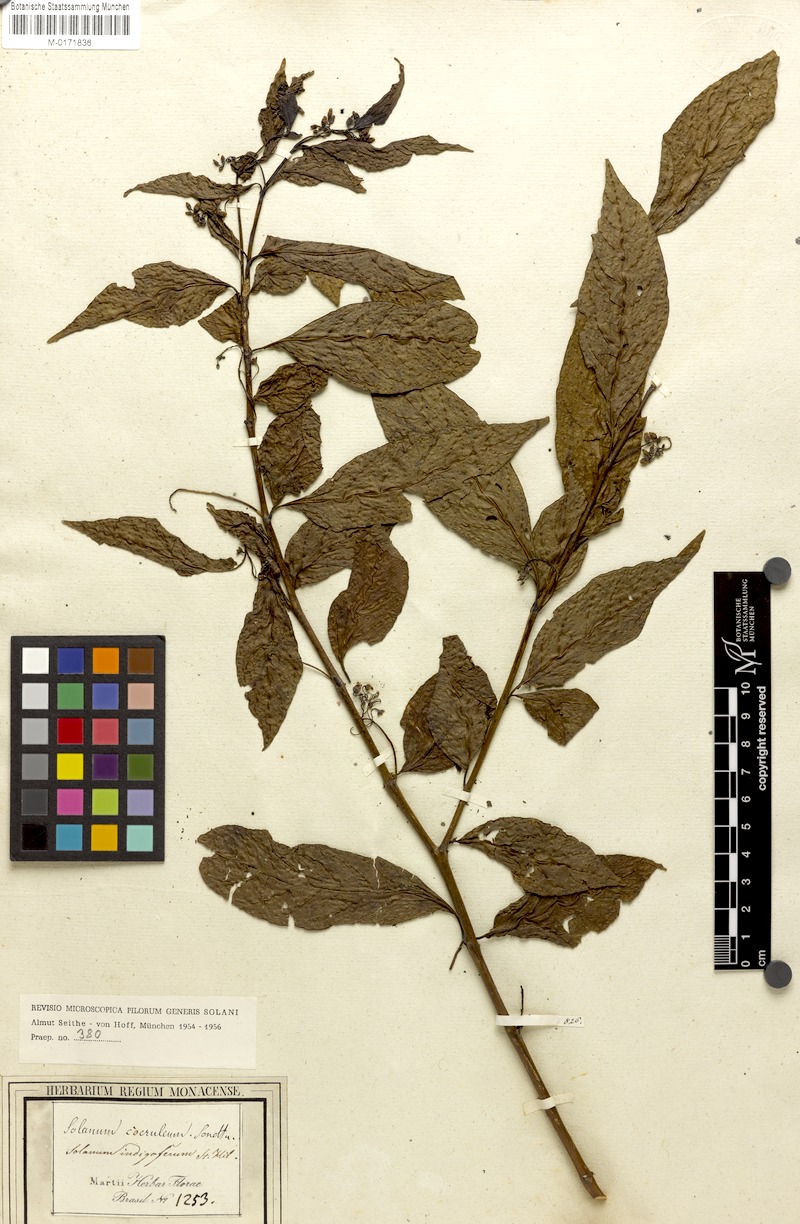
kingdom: Plantae
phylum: Tracheophyta
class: Magnoliopsida
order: Solanales
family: Solanaceae
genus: Solanum
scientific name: Solanum campaniforme
